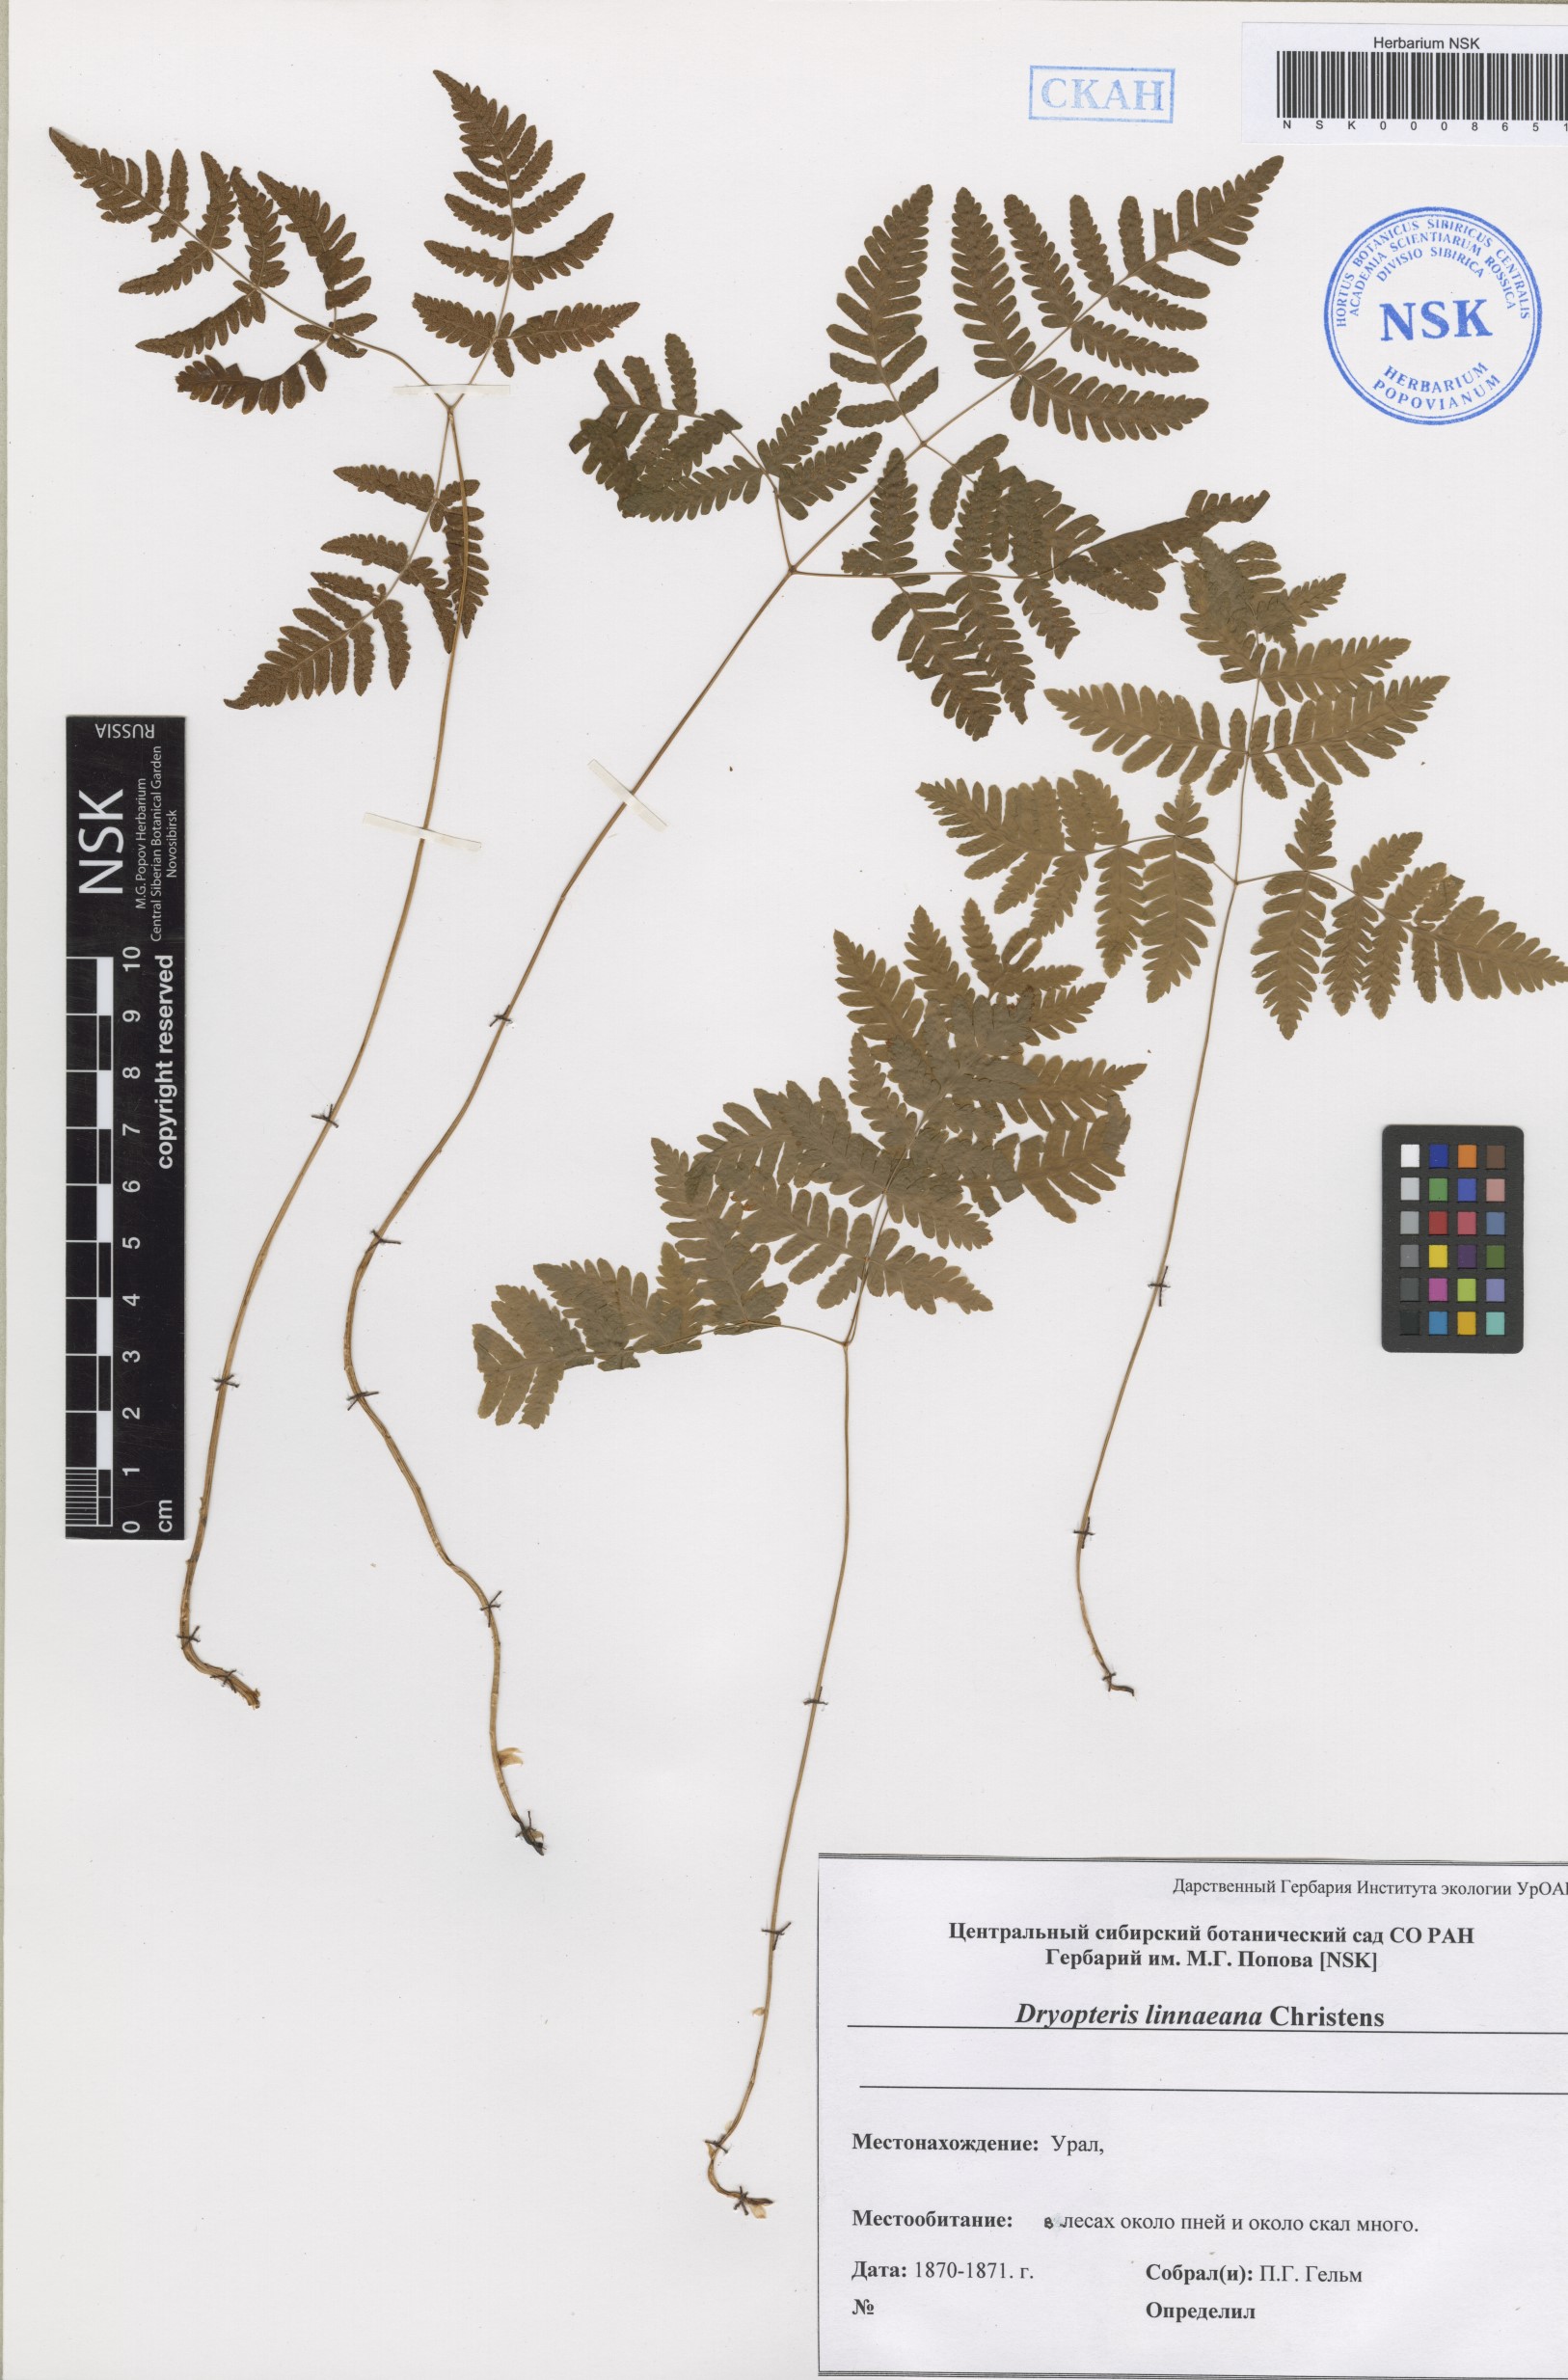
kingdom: Plantae
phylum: Tracheophyta
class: Polypodiopsida
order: Polypodiales
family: Cystopteridaceae
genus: Gymnocarpium
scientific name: Gymnocarpium dryopteris
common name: Oak fern
